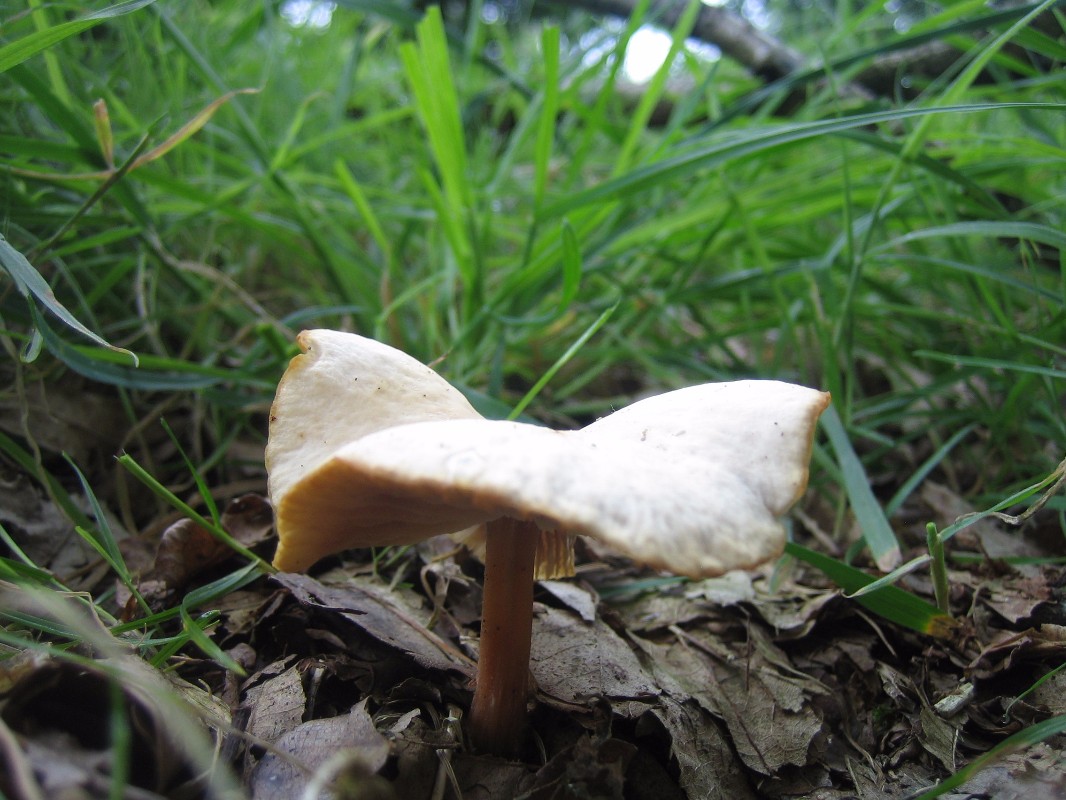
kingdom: Fungi
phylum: Basidiomycota
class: Agaricomycetes
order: Agaricales
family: Omphalotaceae
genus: Gymnopus
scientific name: Gymnopus
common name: fladhat
